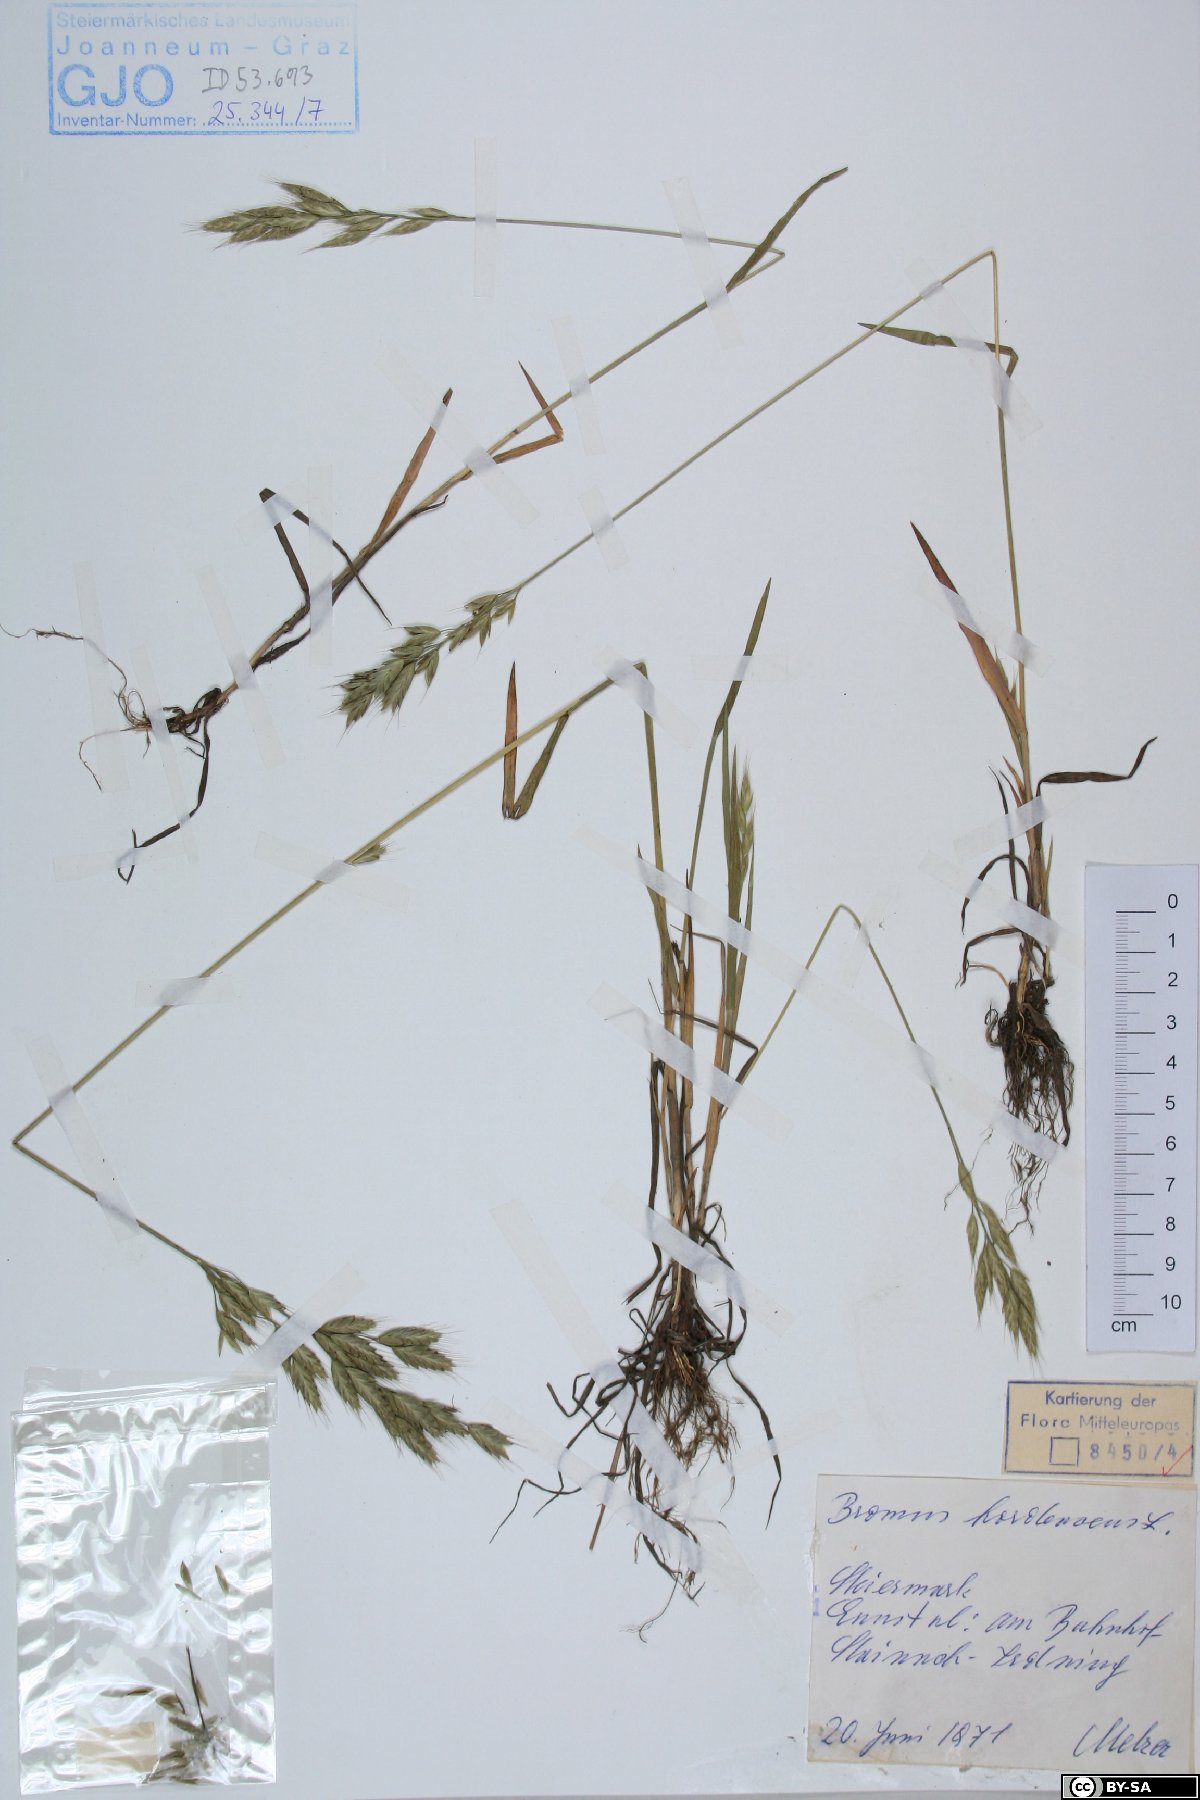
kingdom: Plantae
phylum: Tracheophyta
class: Liliopsida
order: Poales
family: Poaceae
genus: Bromus
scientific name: Bromus hordeaceus
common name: Soft brome
